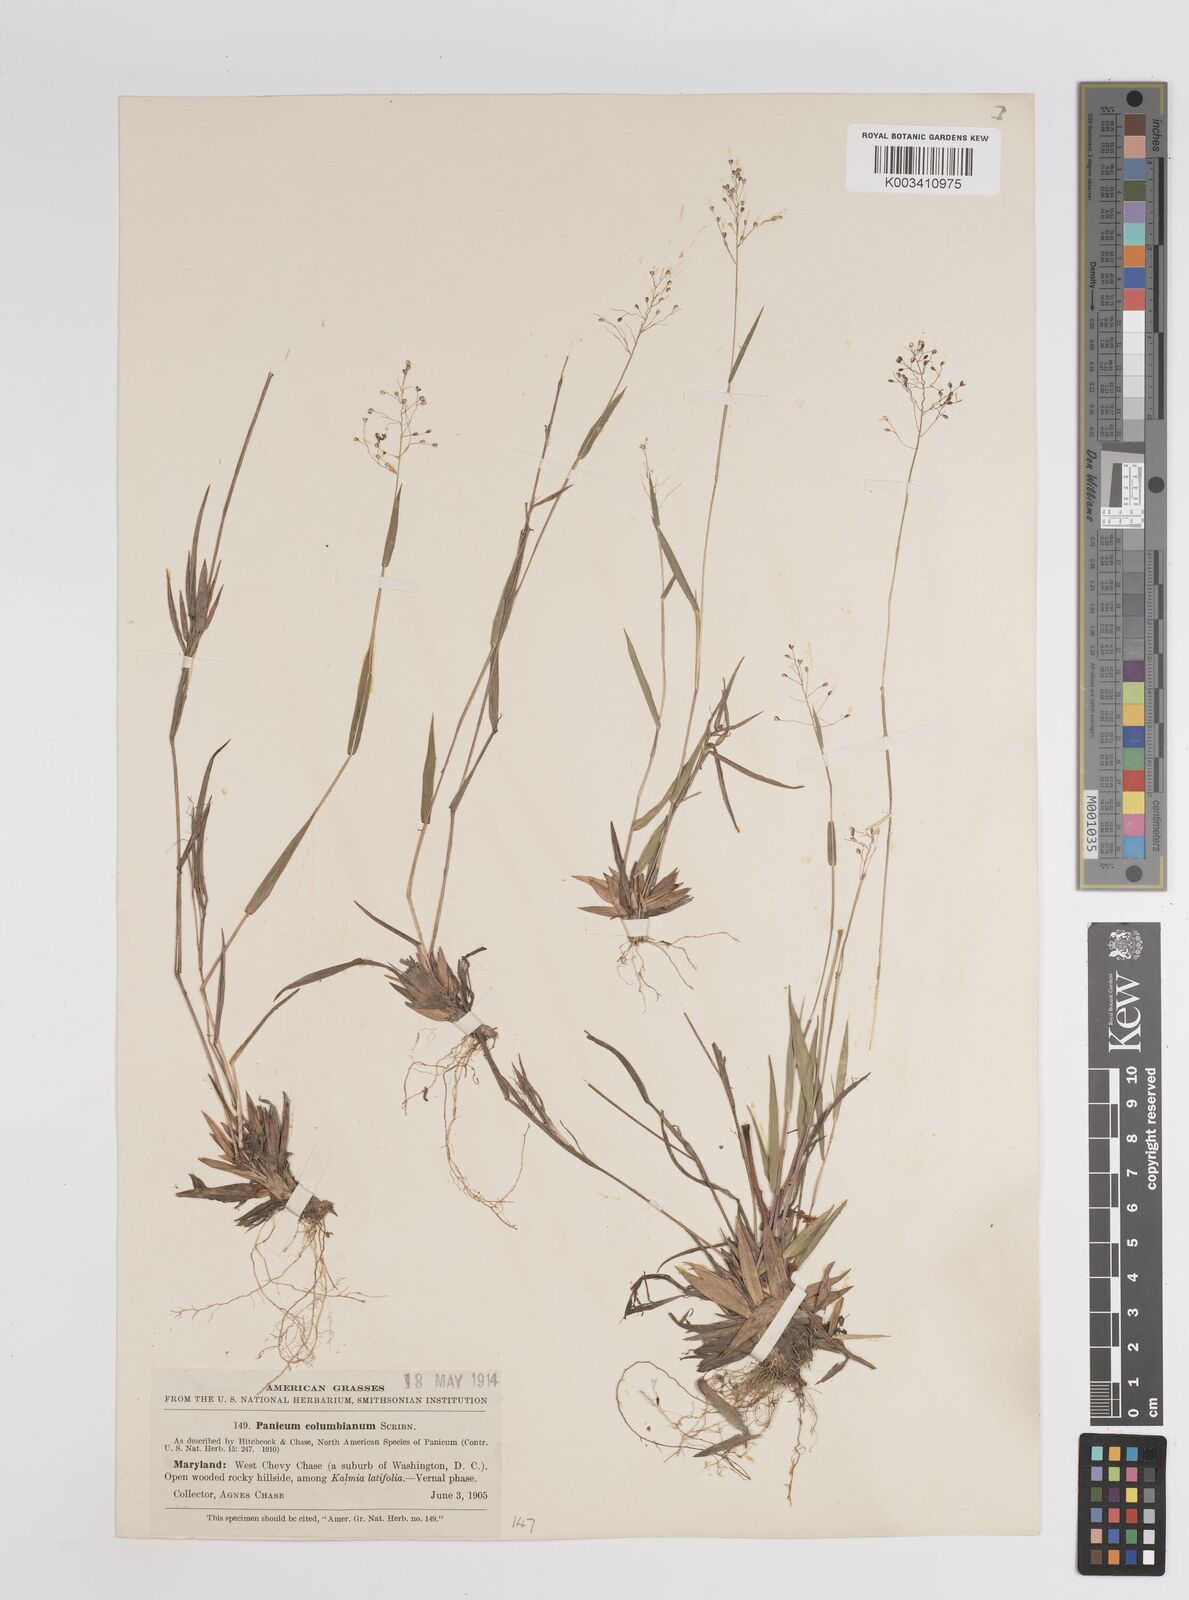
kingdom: Plantae
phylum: Tracheophyta
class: Liliopsida
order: Poales
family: Poaceae
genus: Dichanthelium
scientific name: Dichanthelium columbianum
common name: Hemlock panic grass
